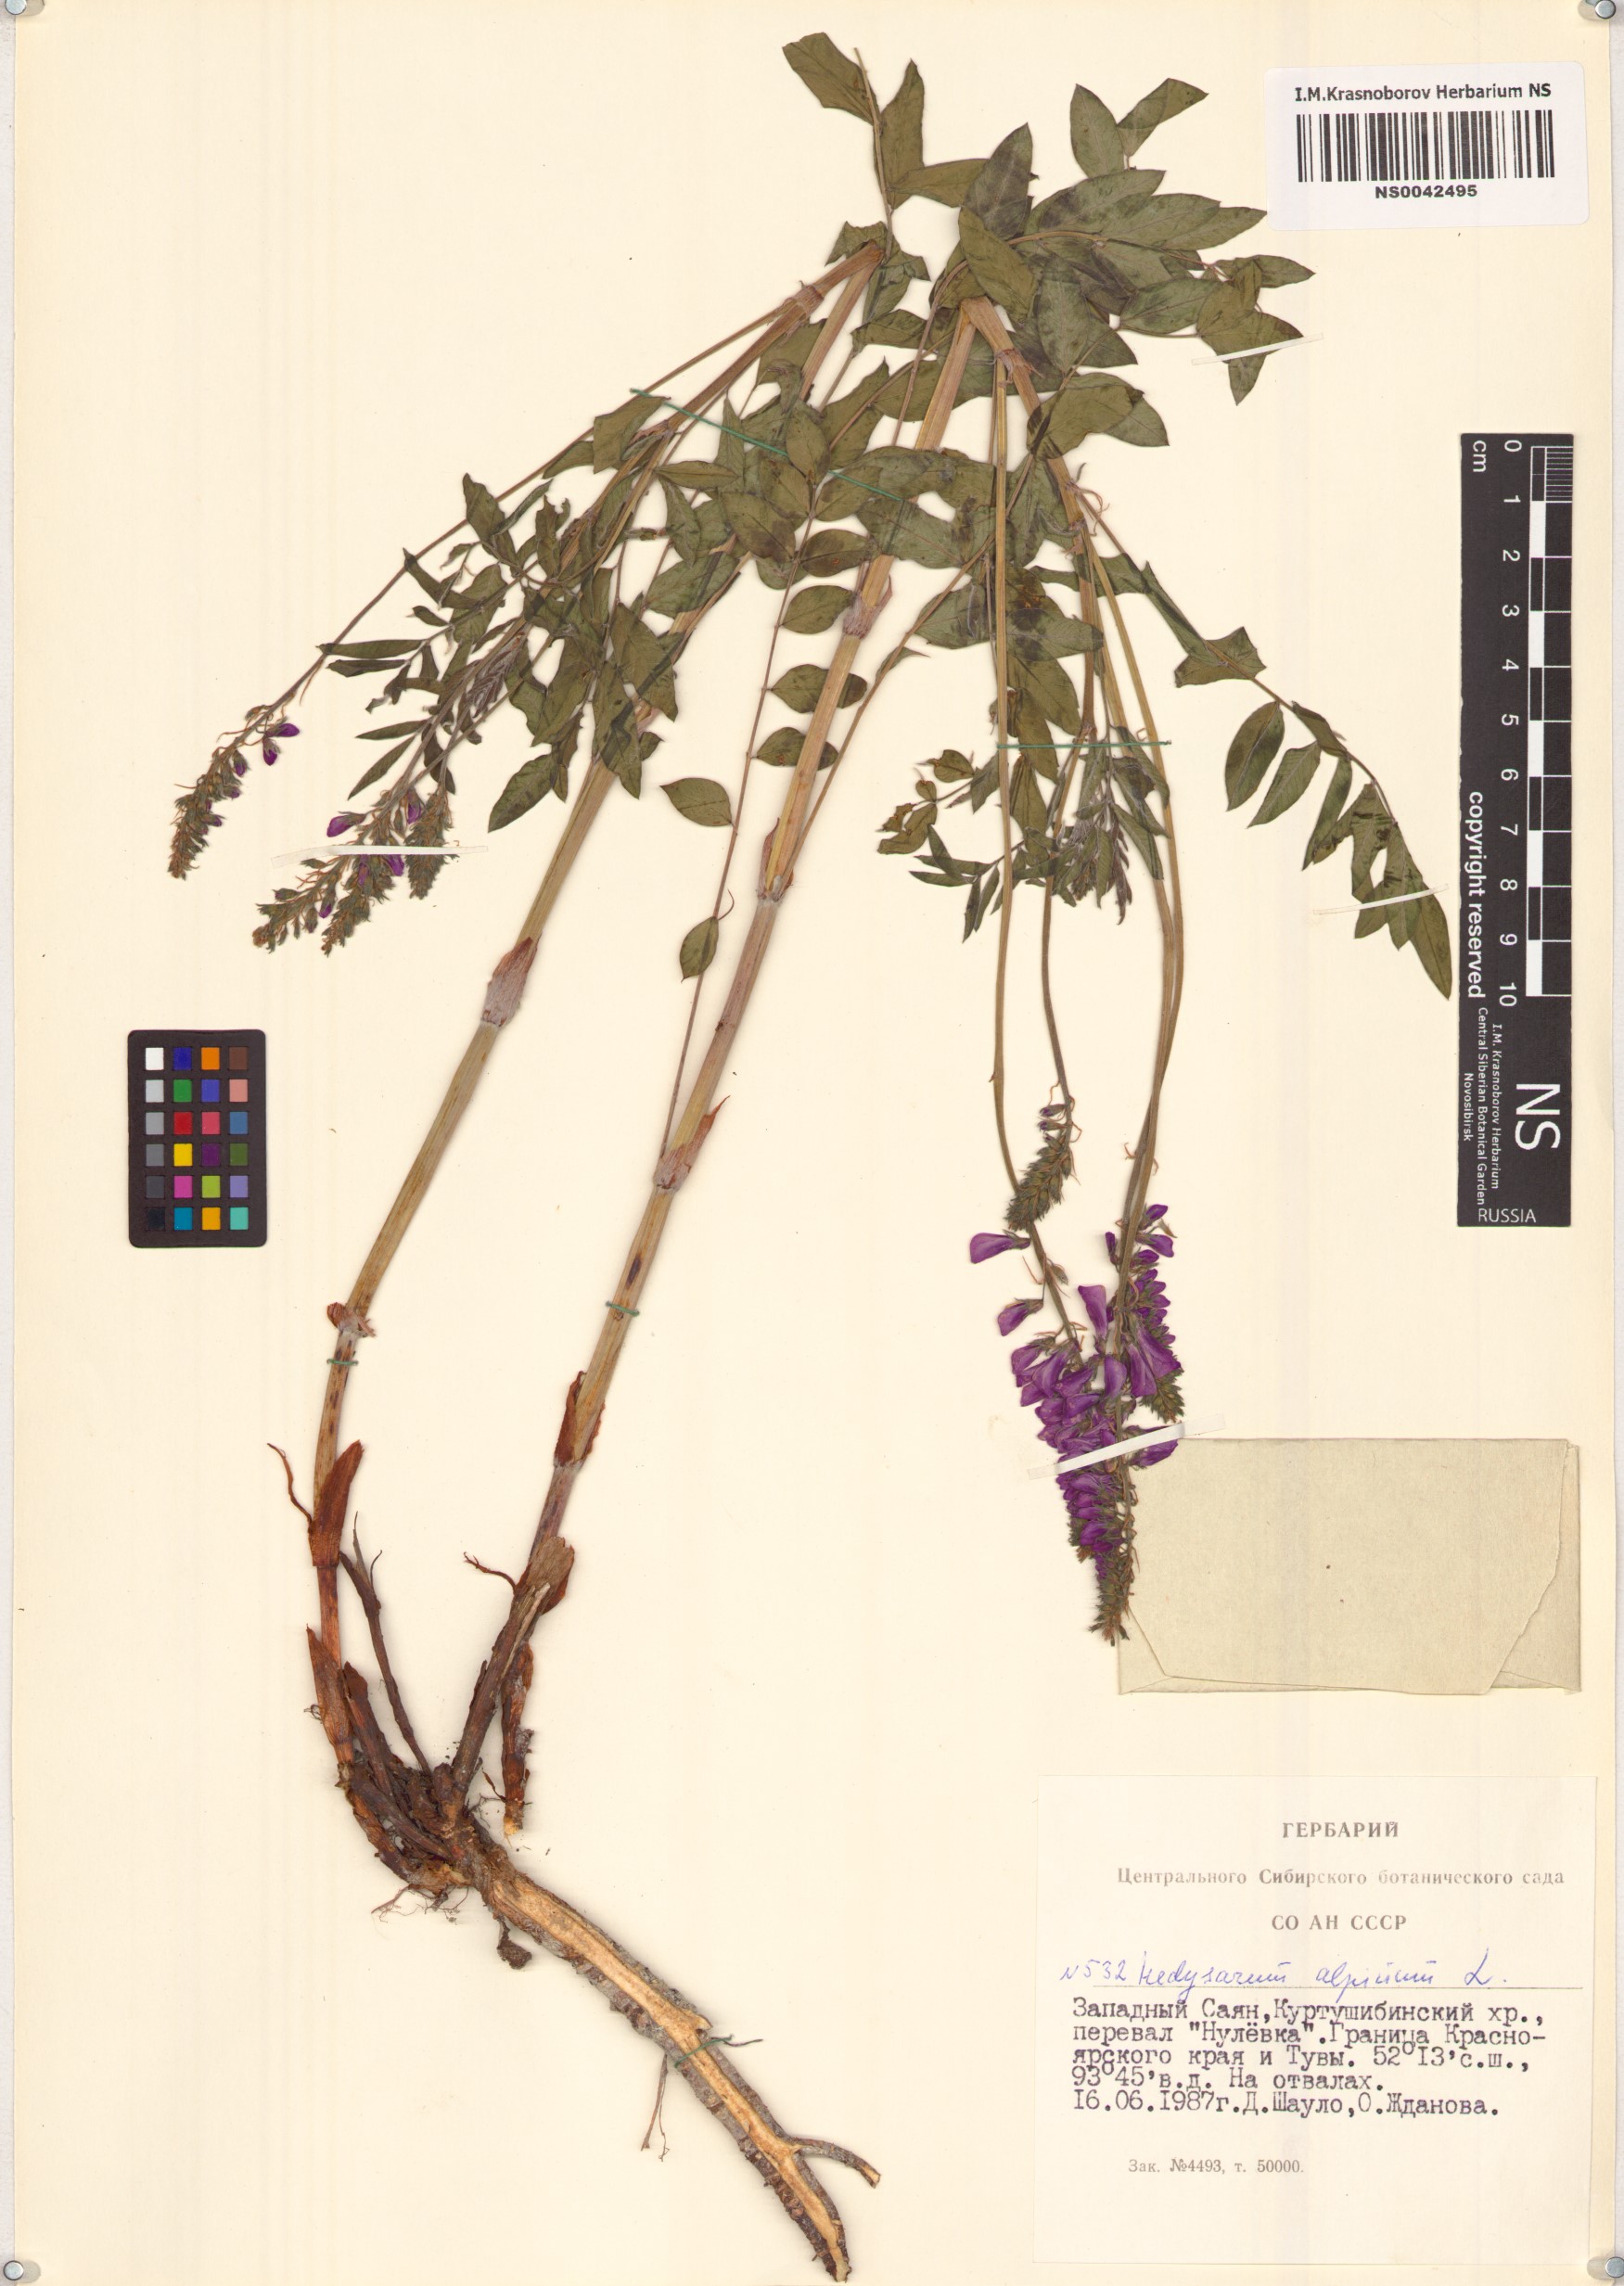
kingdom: Plantae
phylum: Tracheophyta
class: Magnoliopsida
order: Fabales
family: Fabaceae
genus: Hedysarum
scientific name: Hedysarum alpinum
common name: Alpine sweet-vetch
